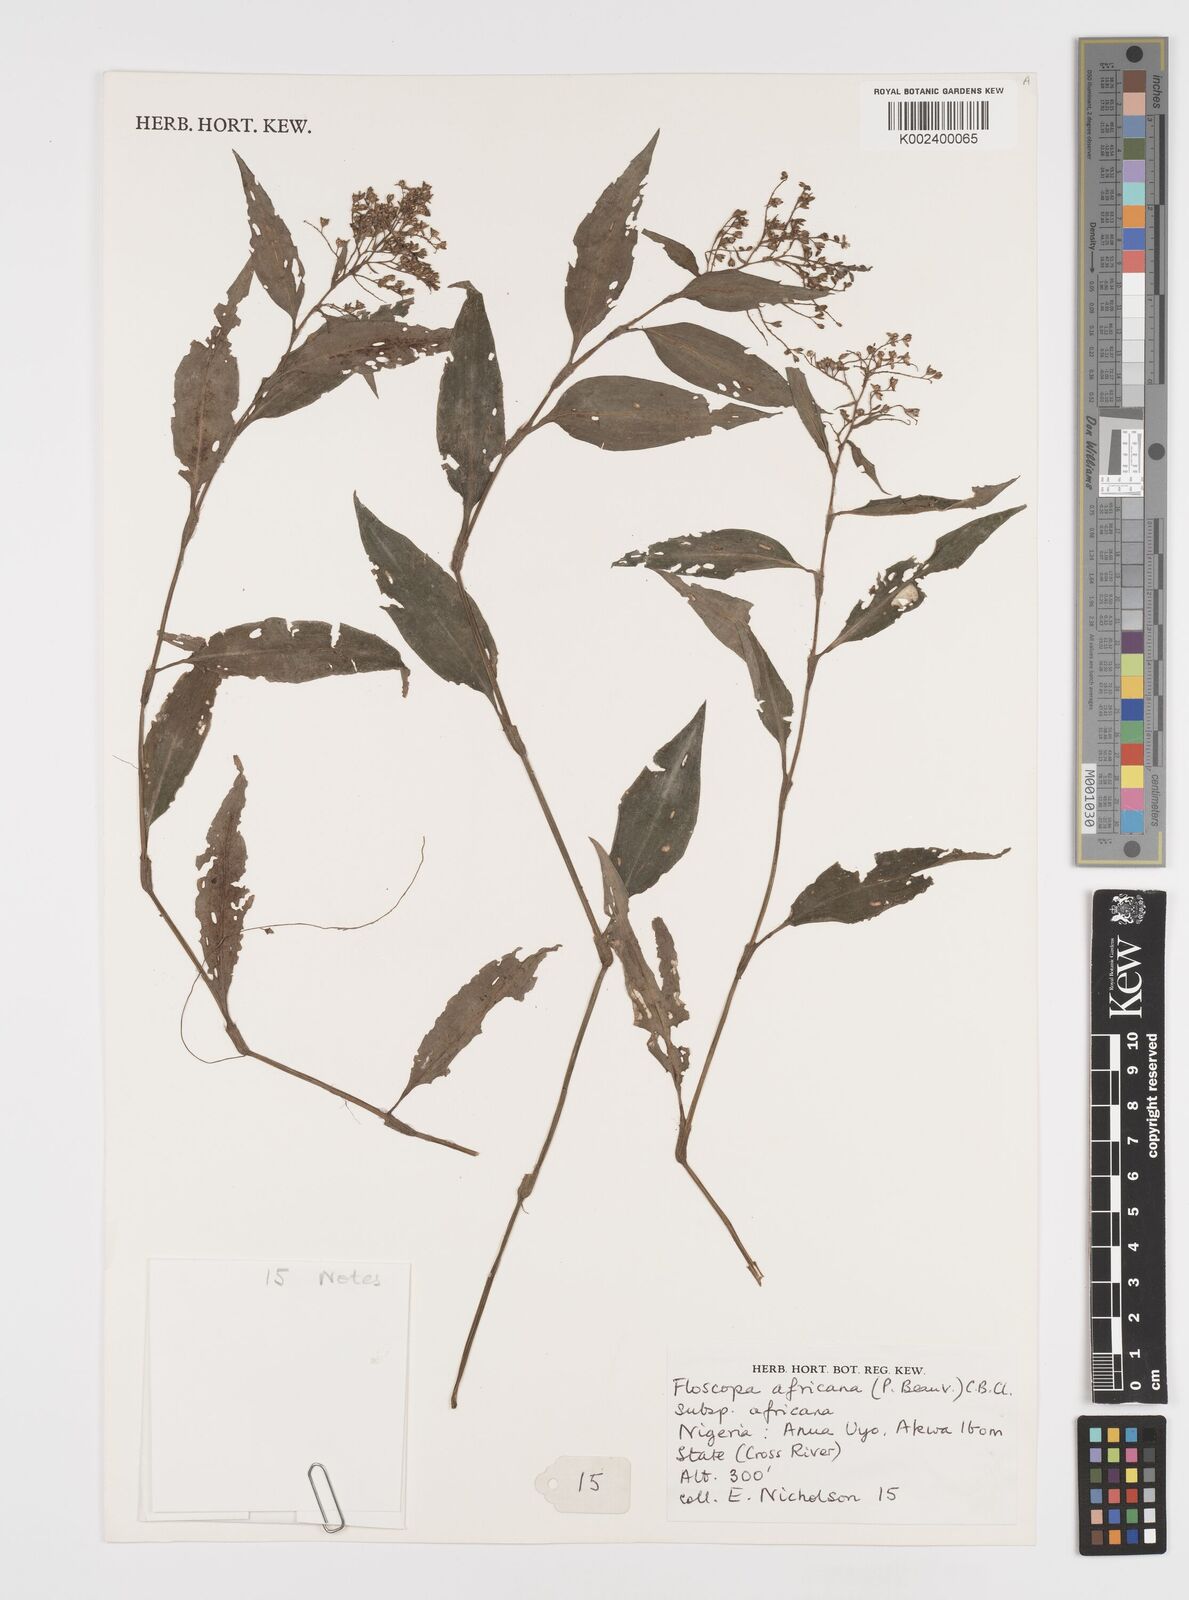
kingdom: Plantae
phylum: Tracheophyta
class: Liliopsida
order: Commelinales
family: Commelinaceae
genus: Floscopa
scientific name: Floscopa africana
